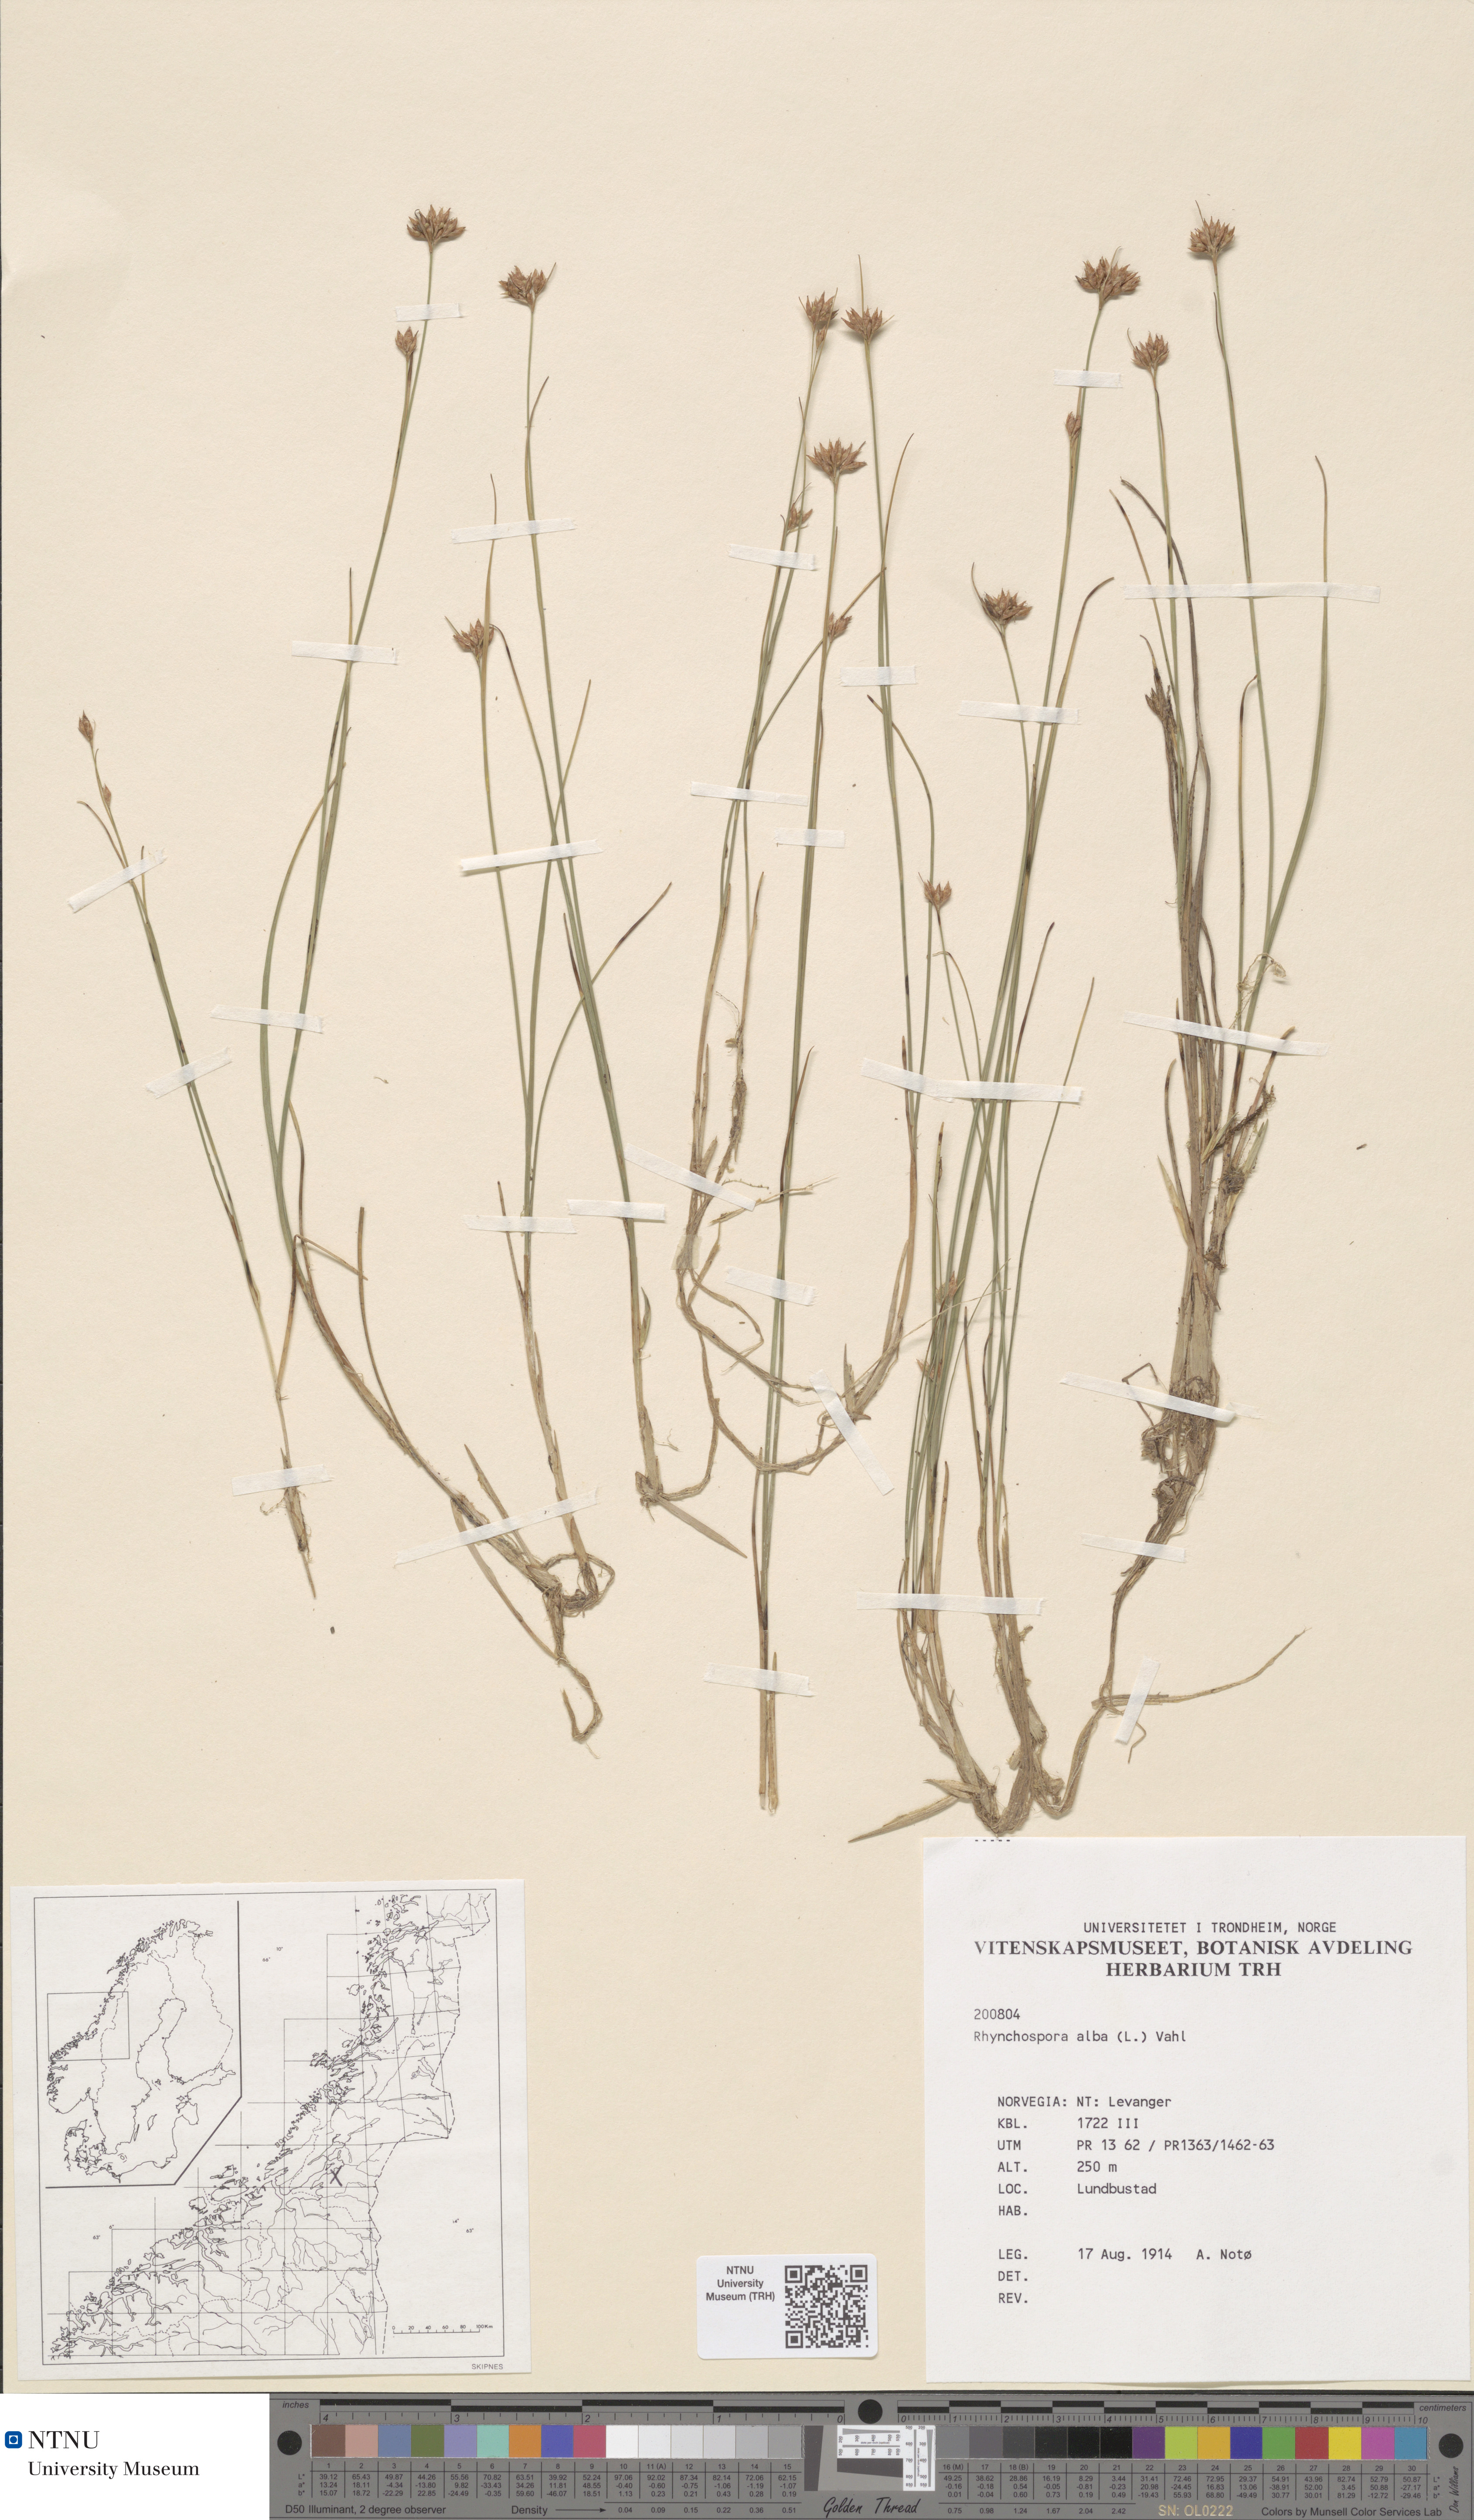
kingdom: Plantae
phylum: Tracheophyta
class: Liliopsida
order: Poales
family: Cyperaceae
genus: Rhynchospora
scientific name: Rhynchospora alba
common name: White beak-sedge
